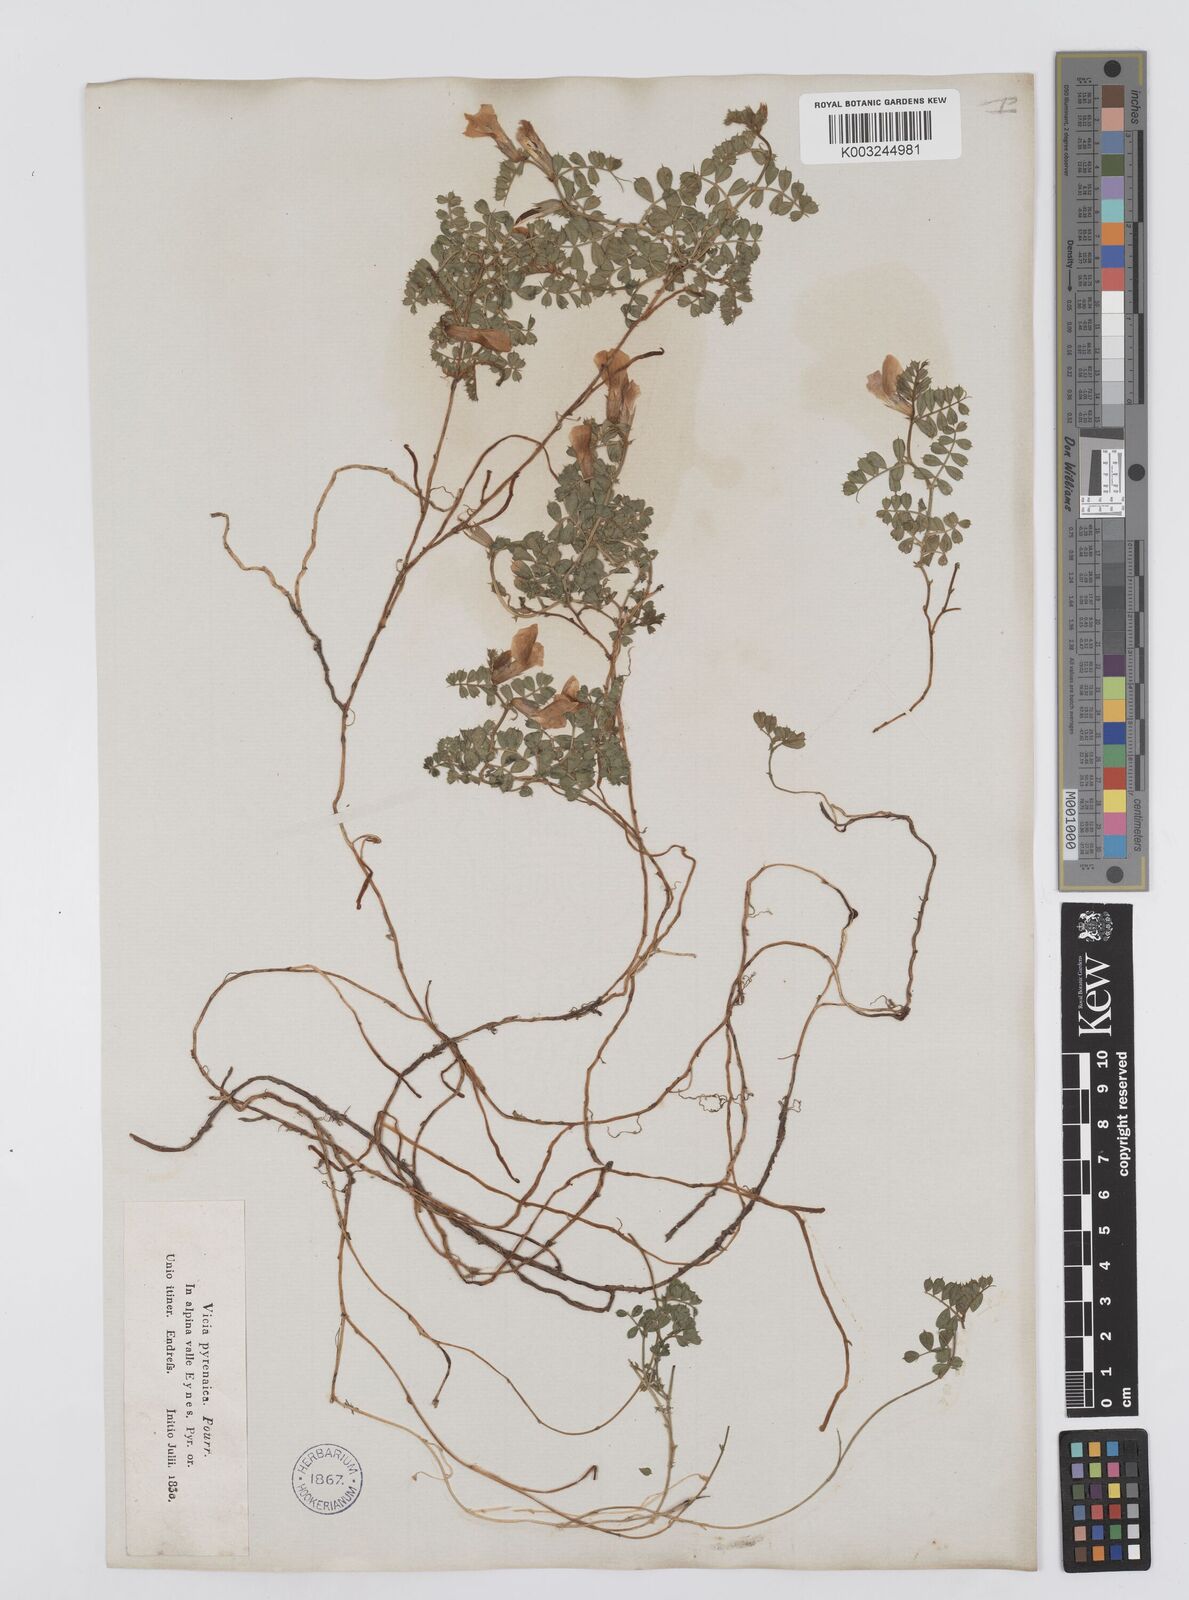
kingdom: Plantae
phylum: Tracheophyta
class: Magnoliopsida
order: Fabales
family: Fabaceae
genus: Vicia
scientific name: Vicia pyrenaica
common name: Pyrenean vetch
